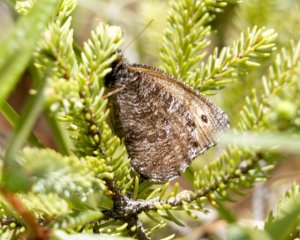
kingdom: Animalia
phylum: Arthropoda
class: Insecta
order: Lepidoptera
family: Nymphalidae
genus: Oeneis
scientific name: Oeneis jutta
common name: Jutta Arctic
